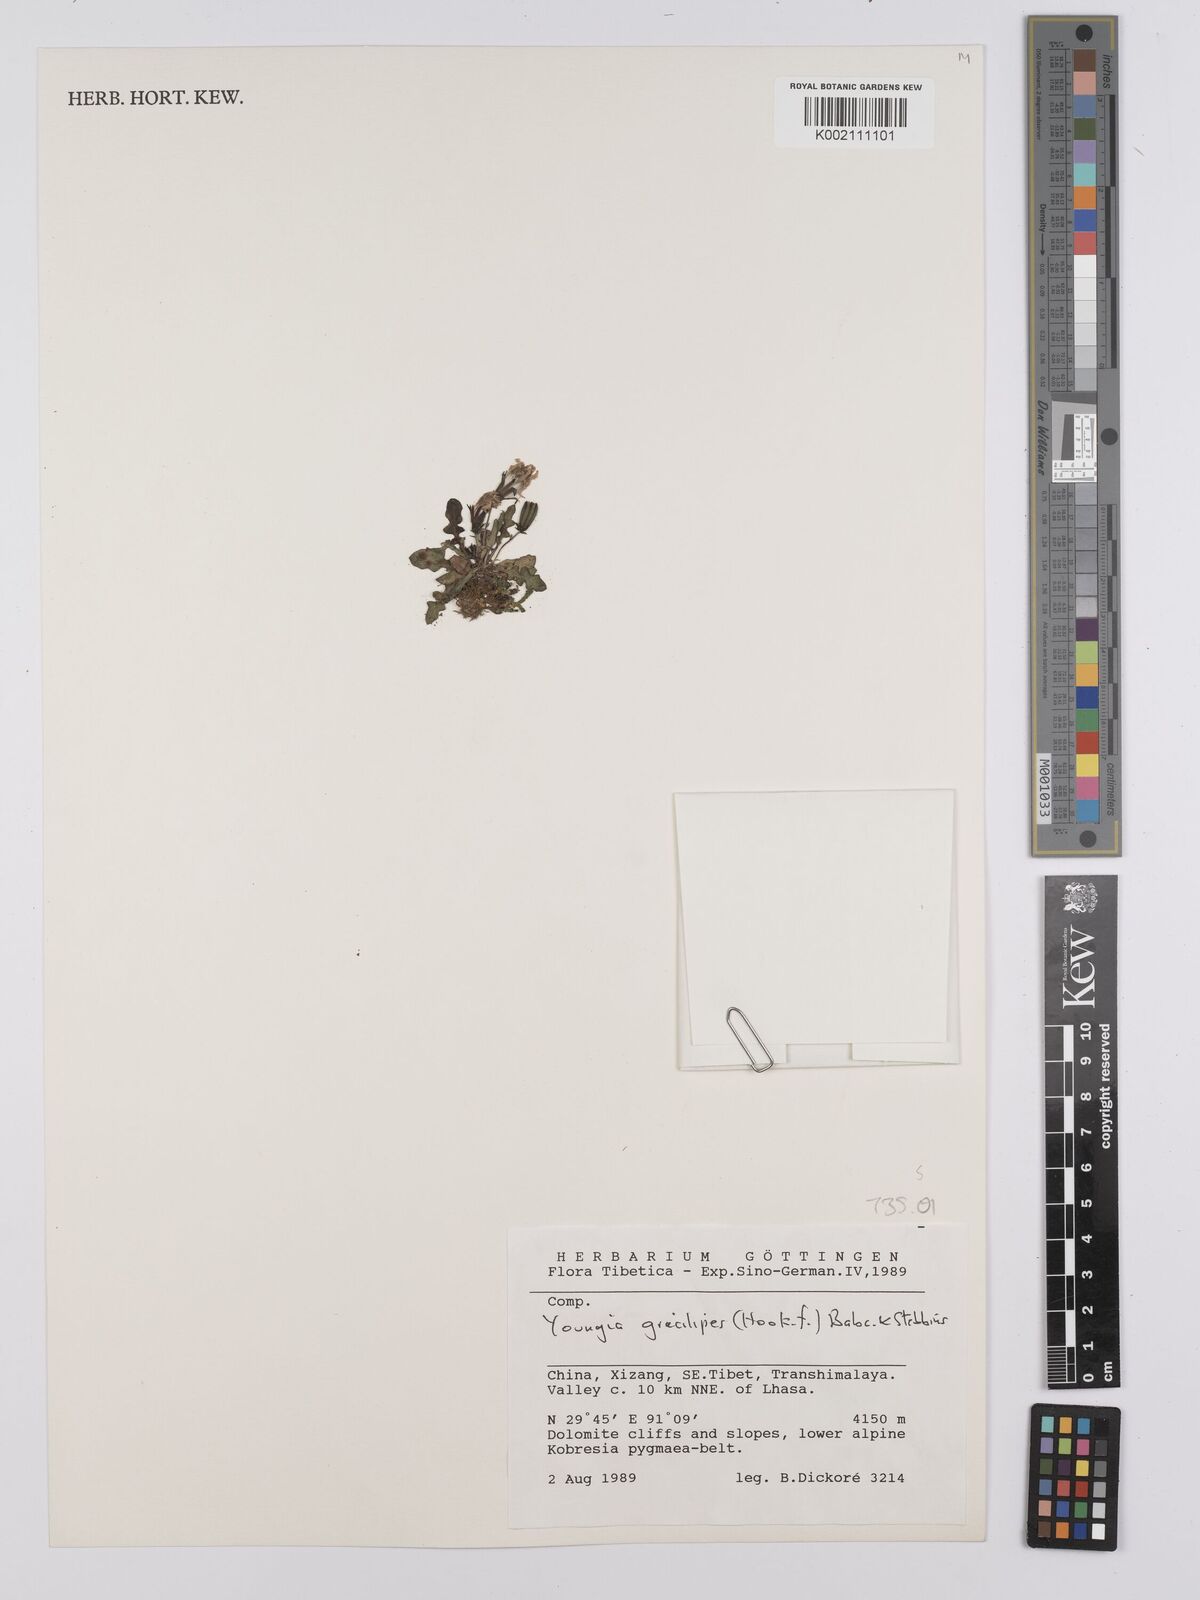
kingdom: Plantae
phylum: Tracheophyta
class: Magnoliopsida
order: Asterales
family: Asteraceae
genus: Youngia
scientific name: Youngia gracilipes
